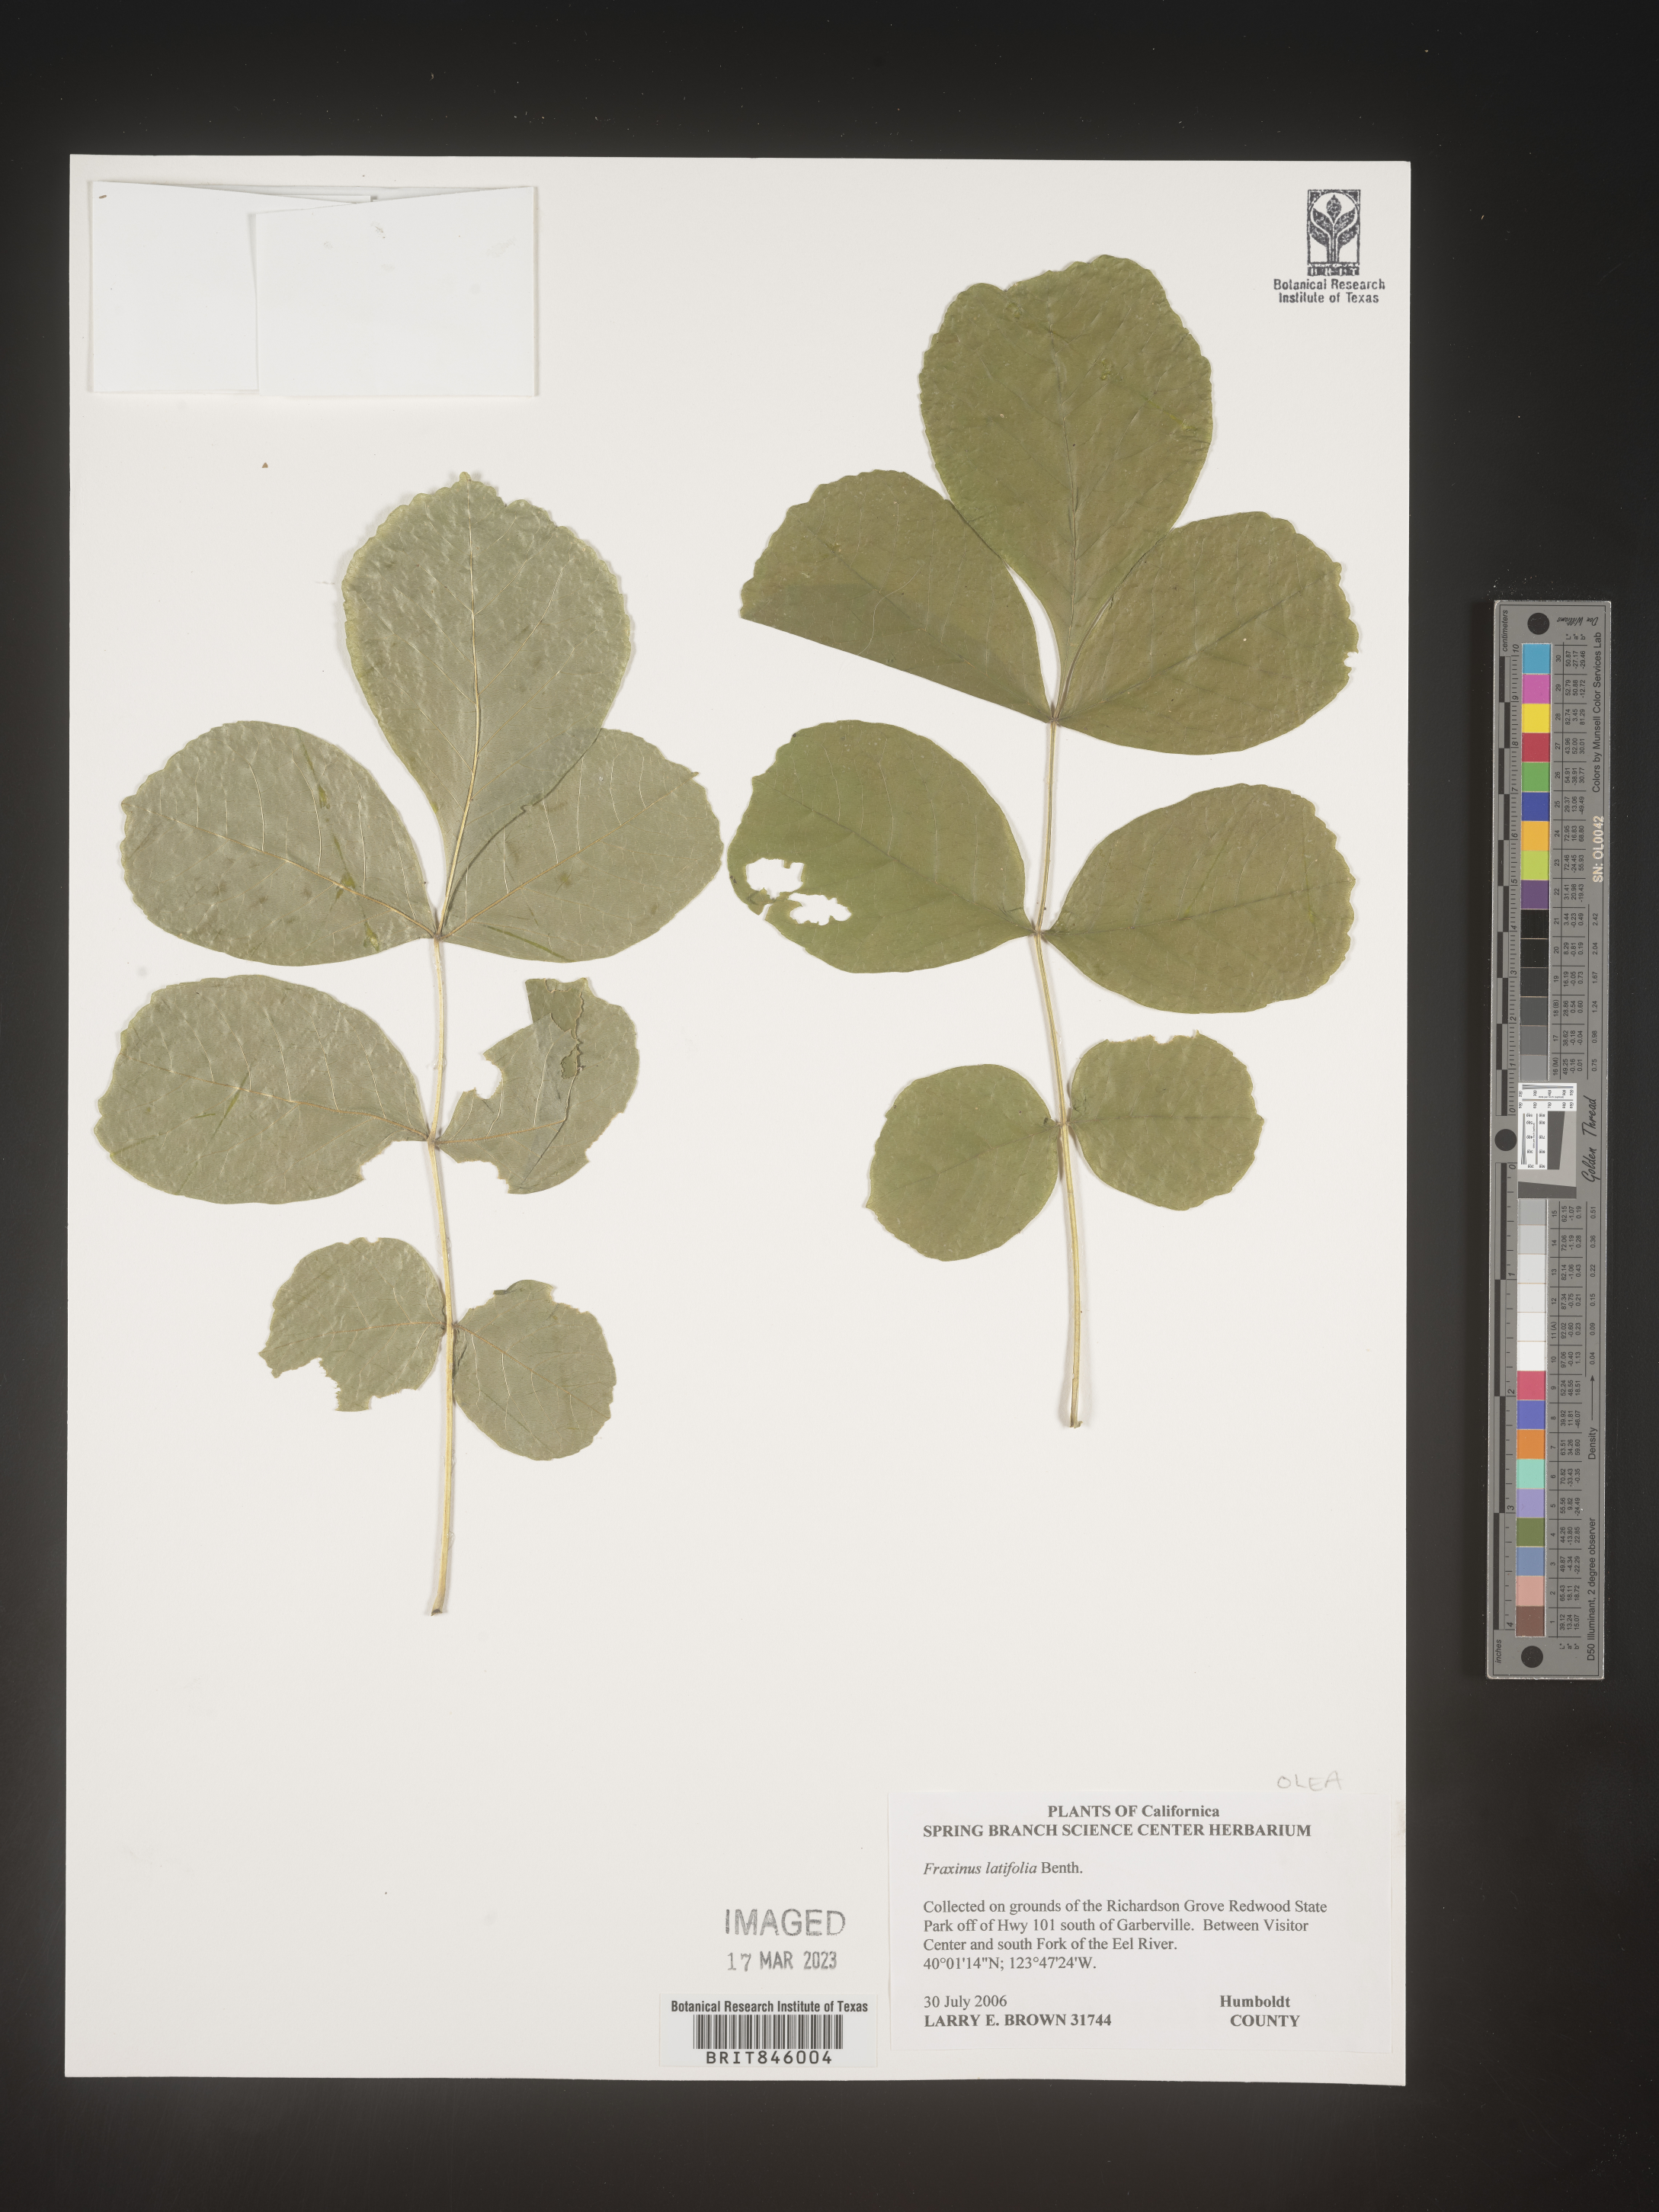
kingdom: Plantae
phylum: Tracheophyta
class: Magnoliopsida
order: Lamiales
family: Oleaceae
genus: Fraxinus
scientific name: Fraxinus latifolia
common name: Oregon ash
